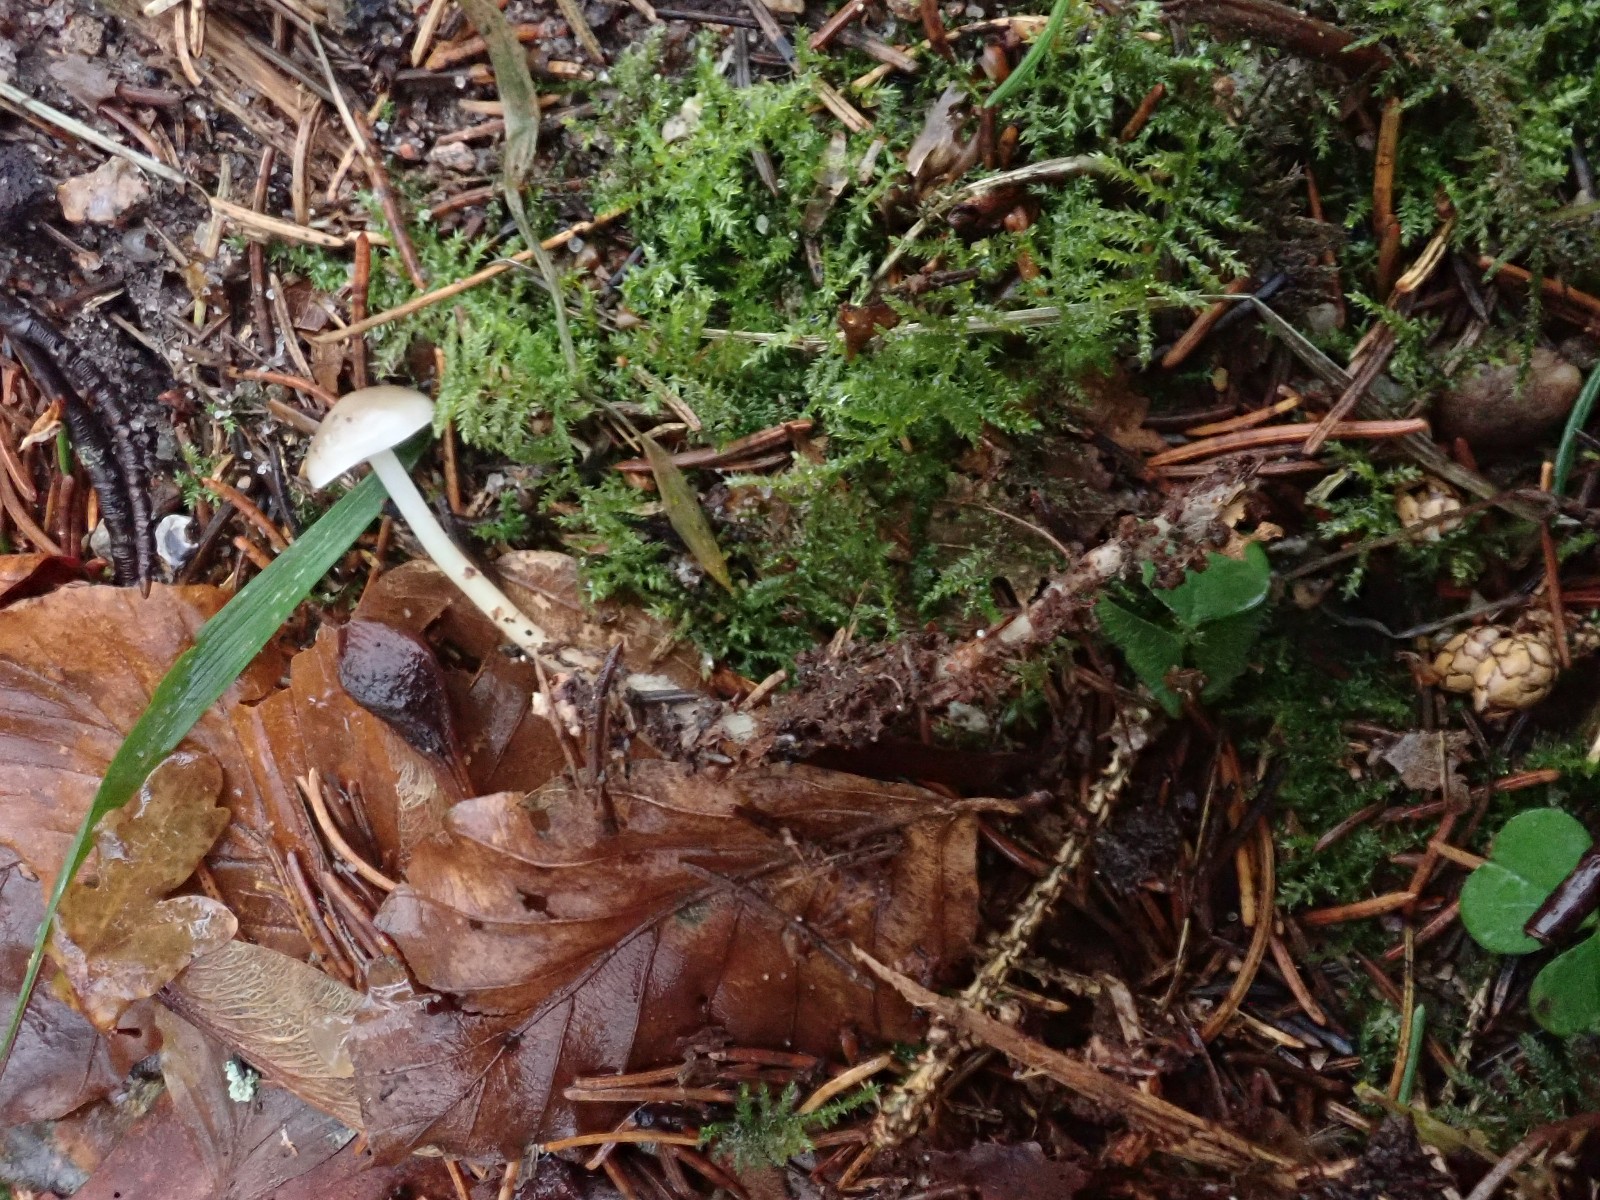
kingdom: Fungi
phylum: Basidiomycota
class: Agaricomycetes
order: Agaricales
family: Physalacriaceae
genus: Strobilurus
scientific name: Strobilurus esculentus
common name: gran-koglehat
